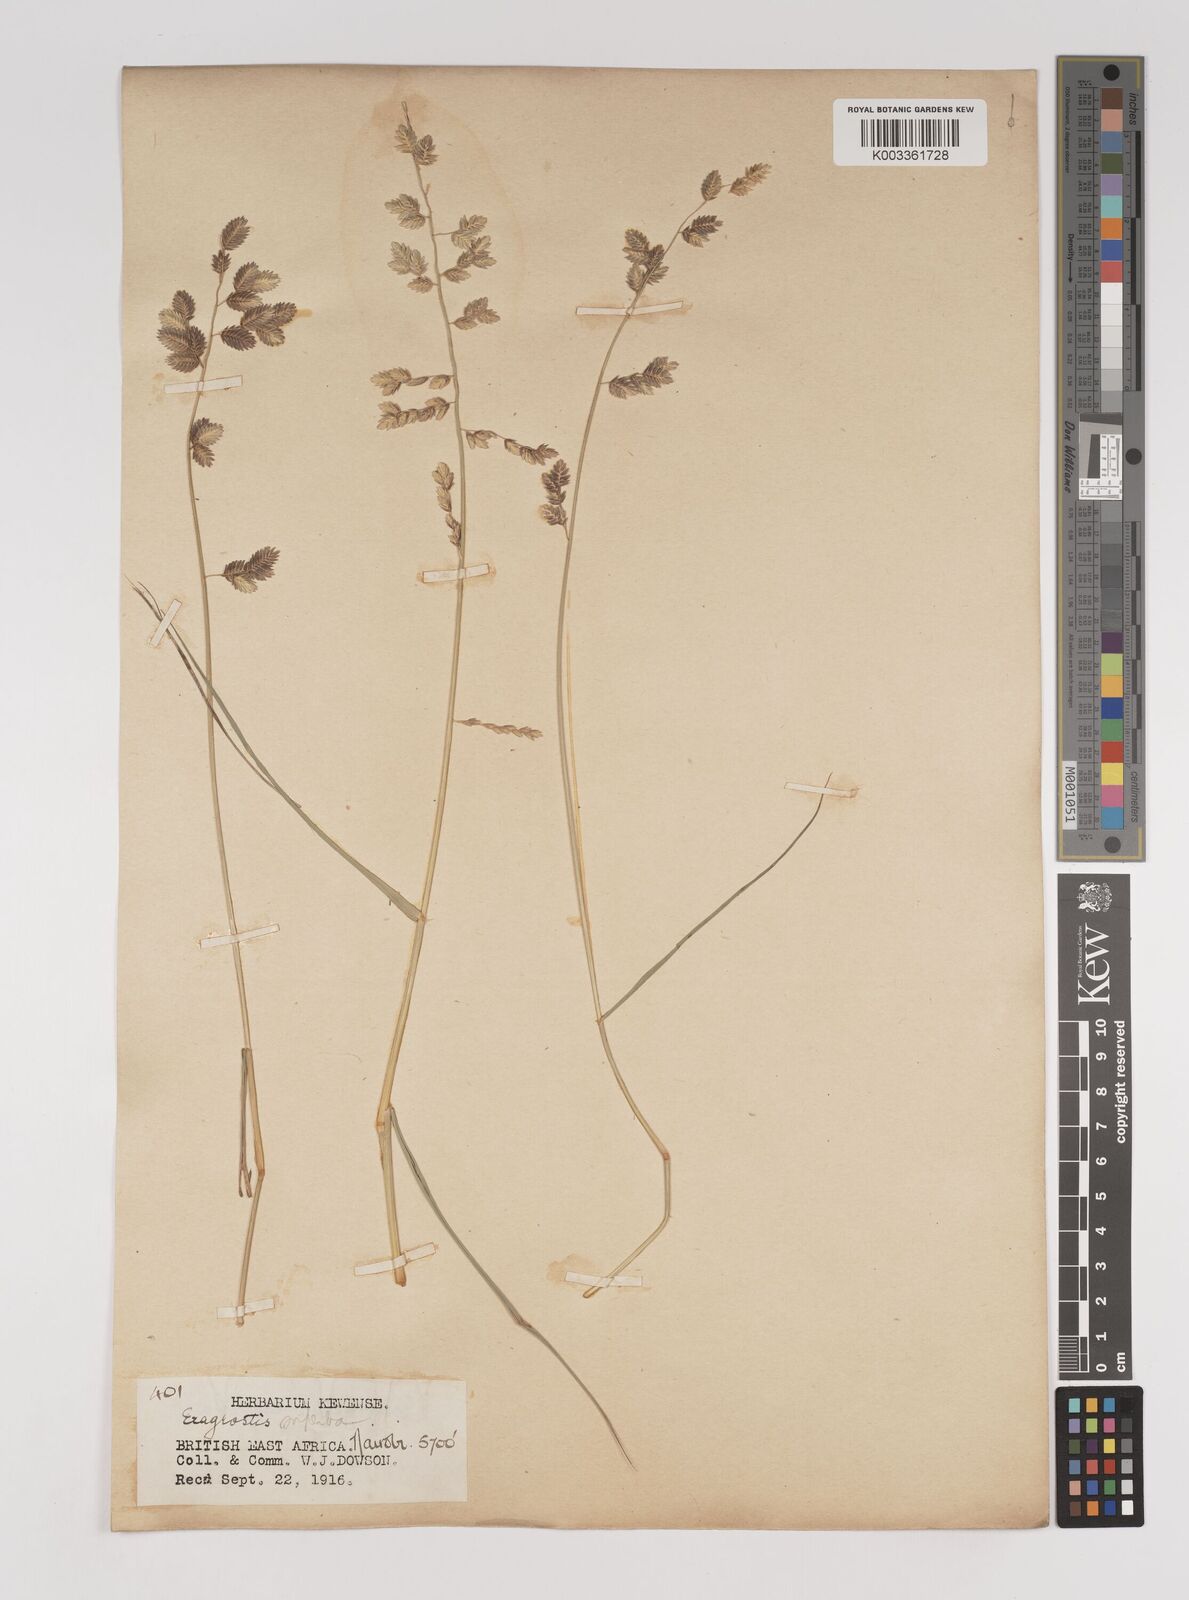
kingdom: Plantae
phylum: Tracheophyta
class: Liliopsida
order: Poales
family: Poaceae
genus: Eragrostis
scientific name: Eragrostis superba
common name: Wilman lovegrass
